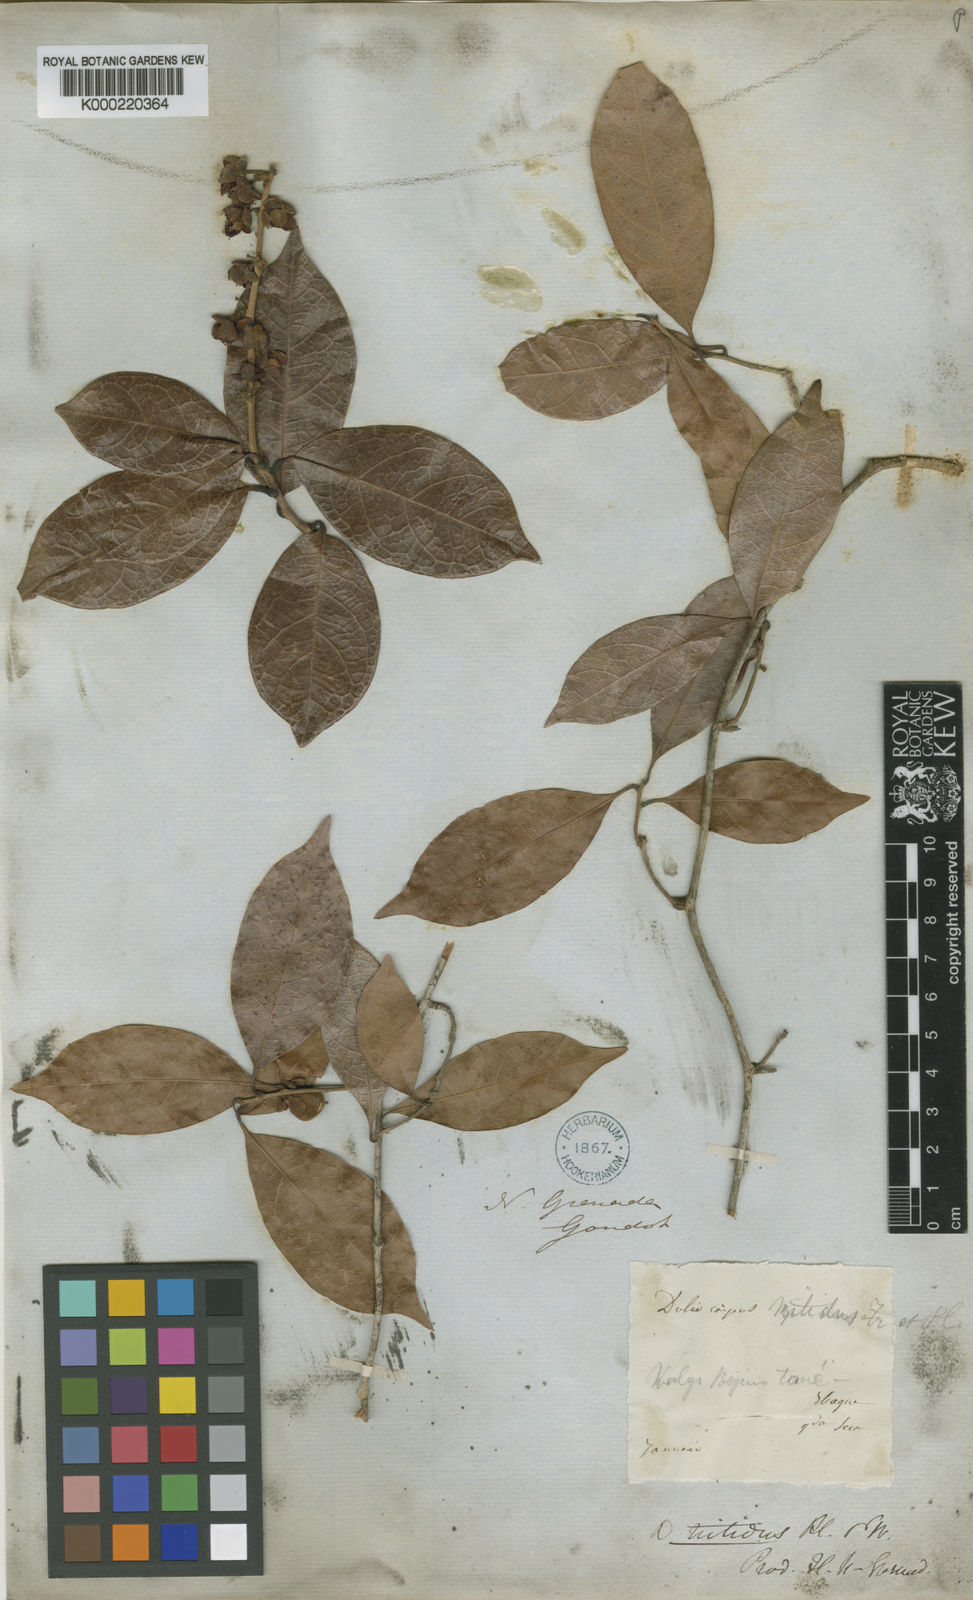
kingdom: Plantae
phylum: Tracheophyta
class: Magnoliopsida
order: Dilleniales
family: Dilleniaceae
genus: Doliocarpus
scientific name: Doliocarpus nitidus
